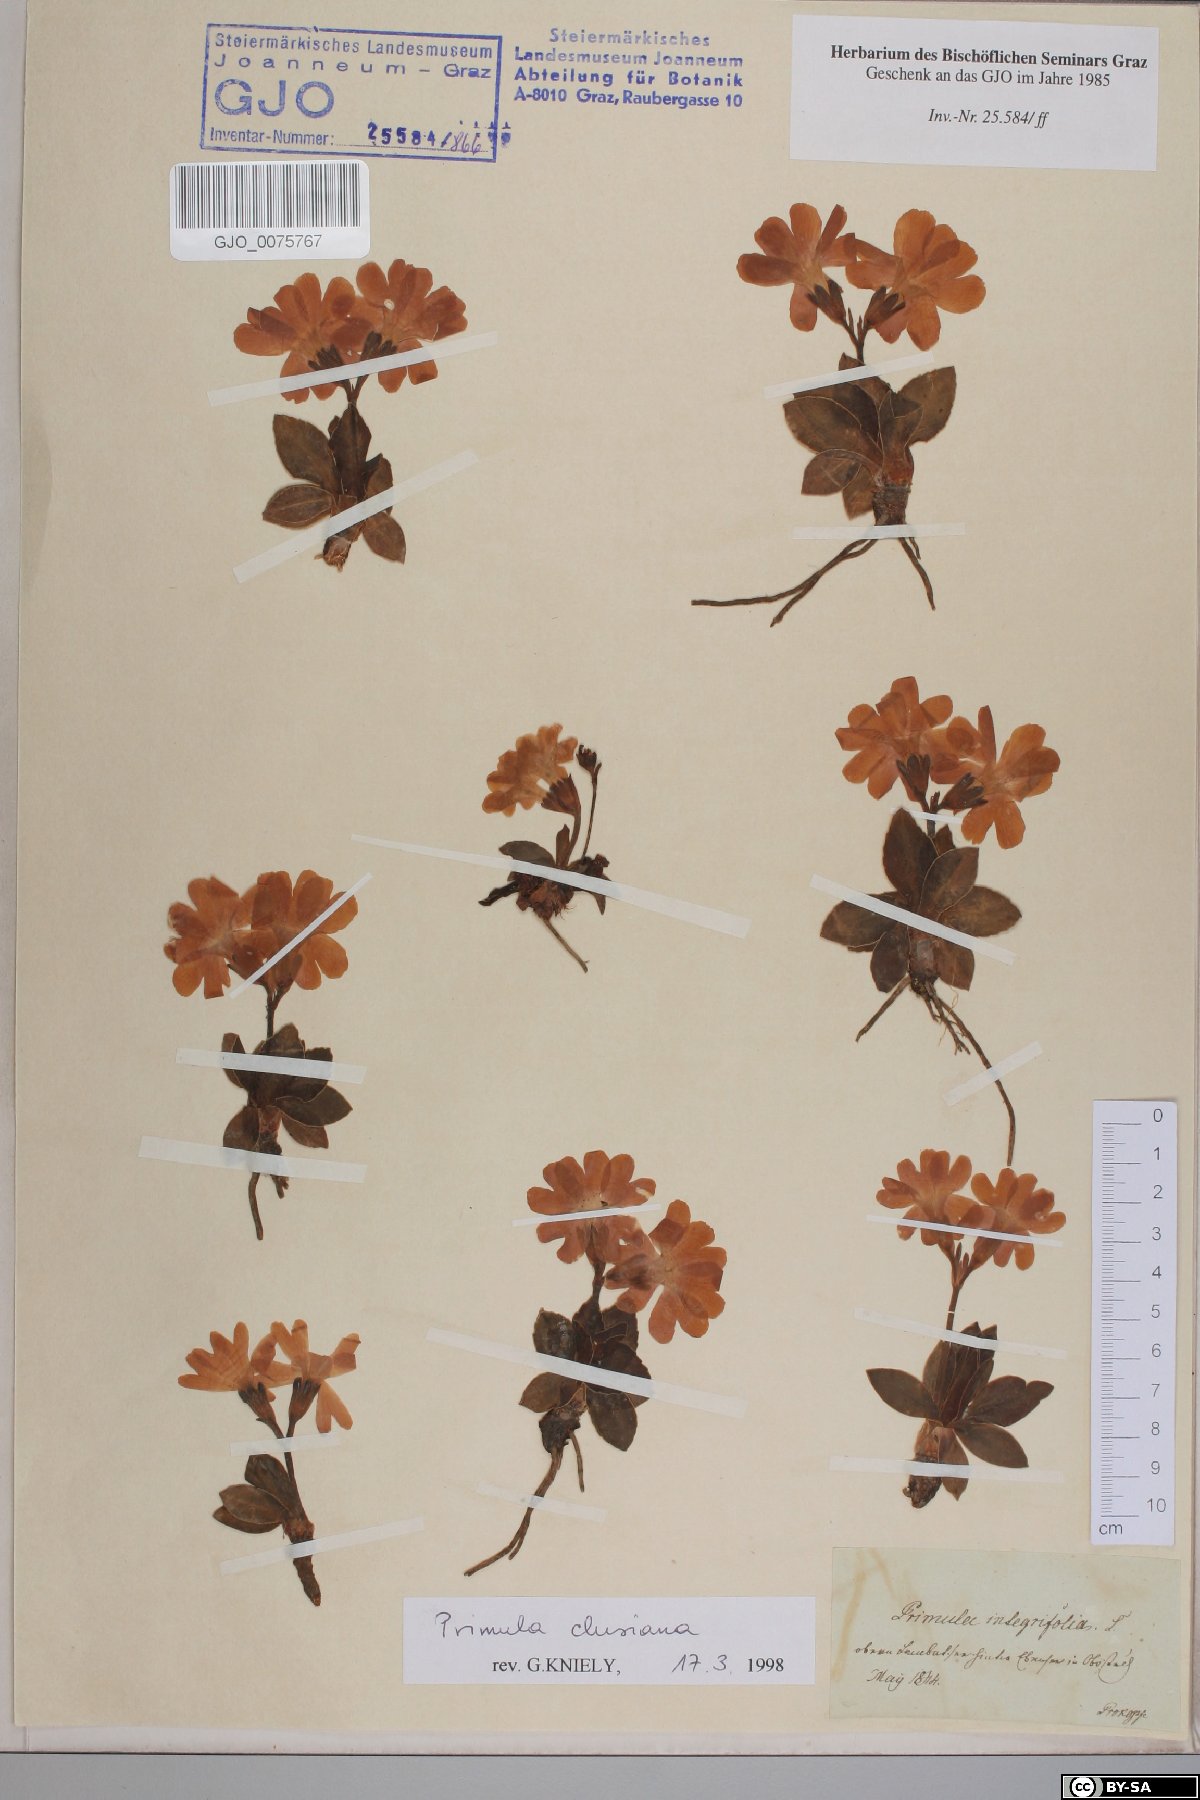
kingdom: Plantae
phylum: Tracheophyta
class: Magnoliopsida
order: Ericales
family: Primulaceae
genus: Primula
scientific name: Primula clusiana
